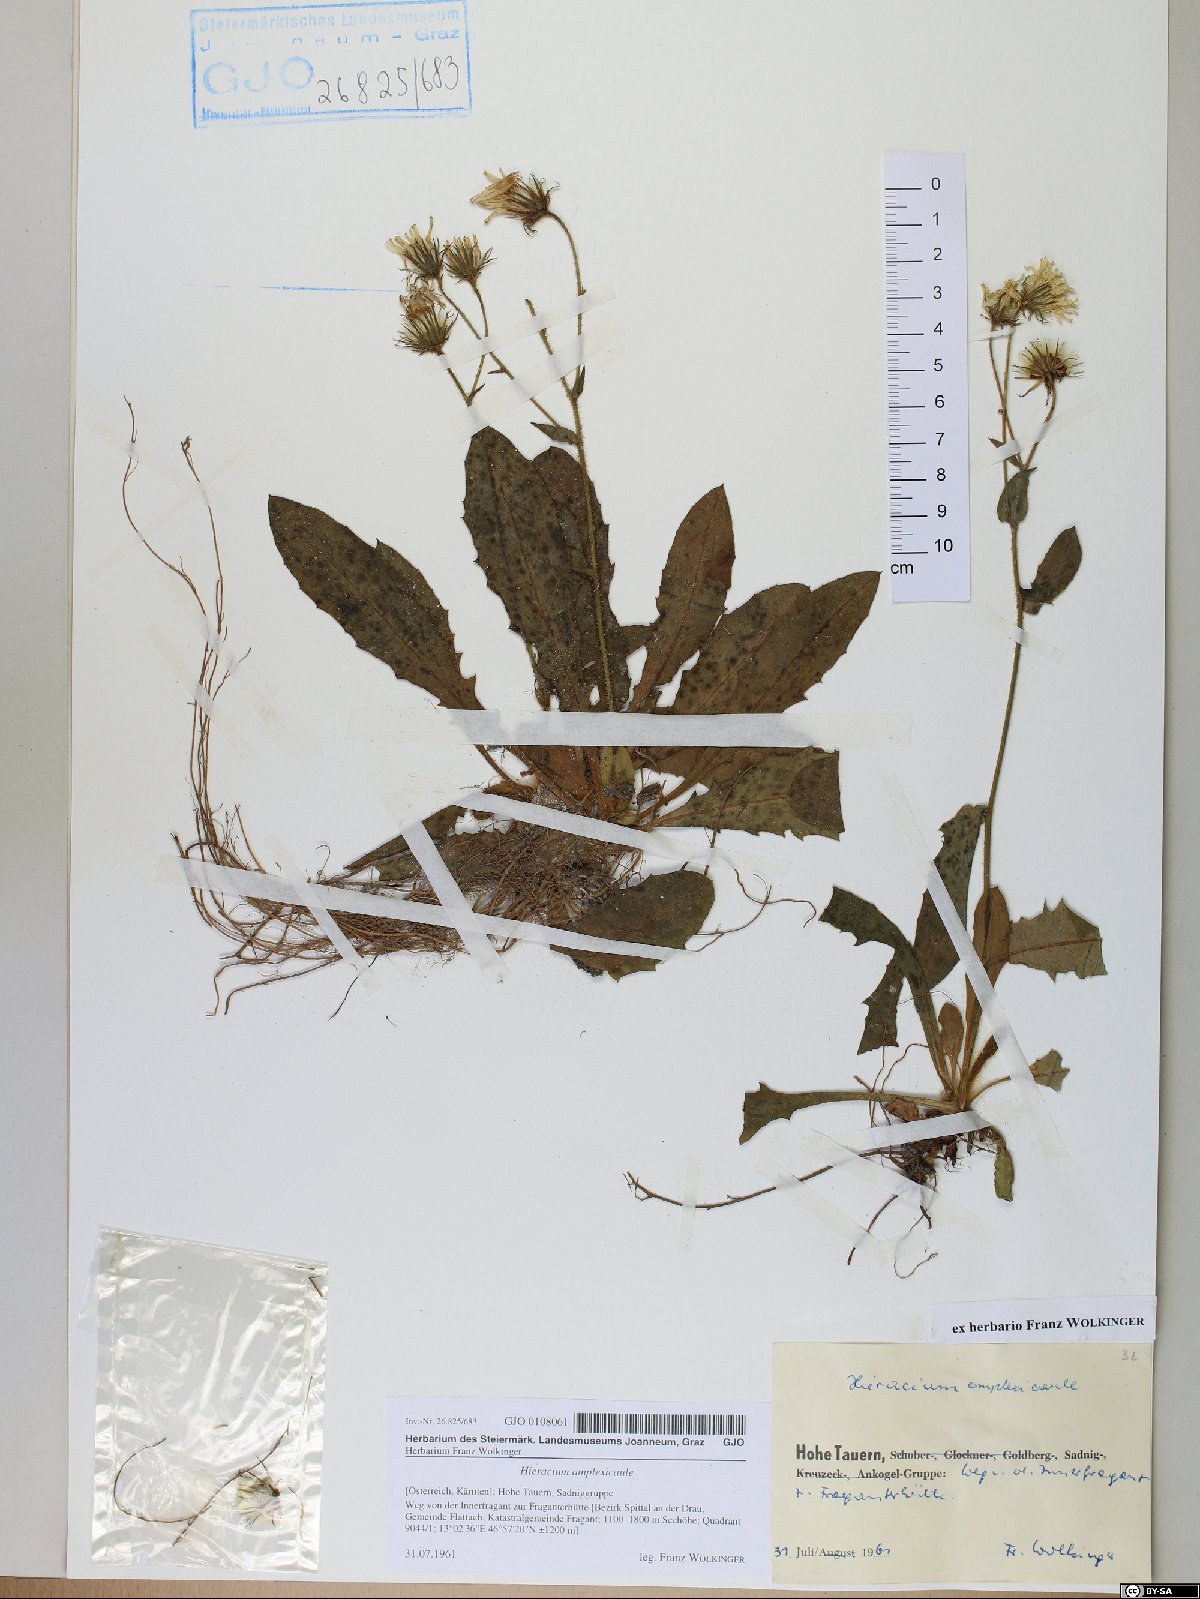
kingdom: Plantae
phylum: Tracheophyta
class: Magnoliopsida
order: Asterales
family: Asteraceae
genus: Hieracium
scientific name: Hieracium amplexicaule
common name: Sticky hawkweed
